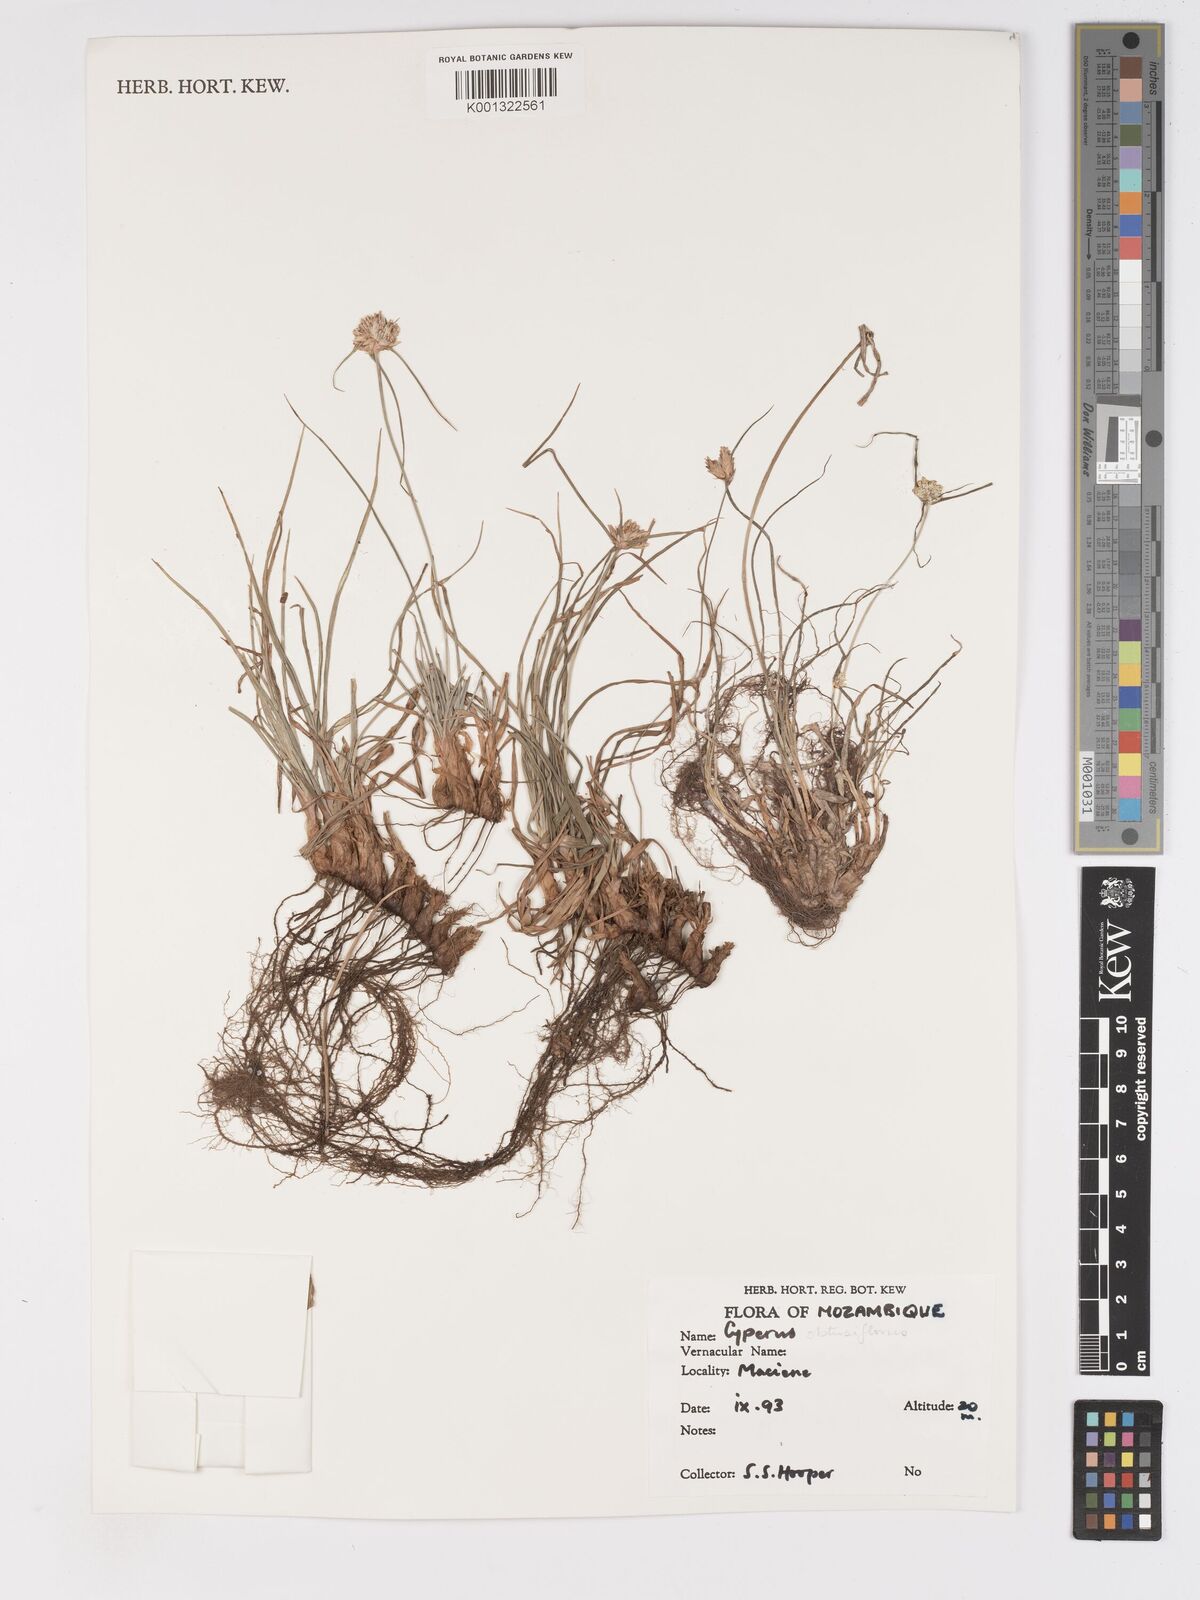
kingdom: Plantae
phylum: Tracheophyta
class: Liliopsida
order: Poales
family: Cyperaceae
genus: Cyperus
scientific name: Cyperus niveus
